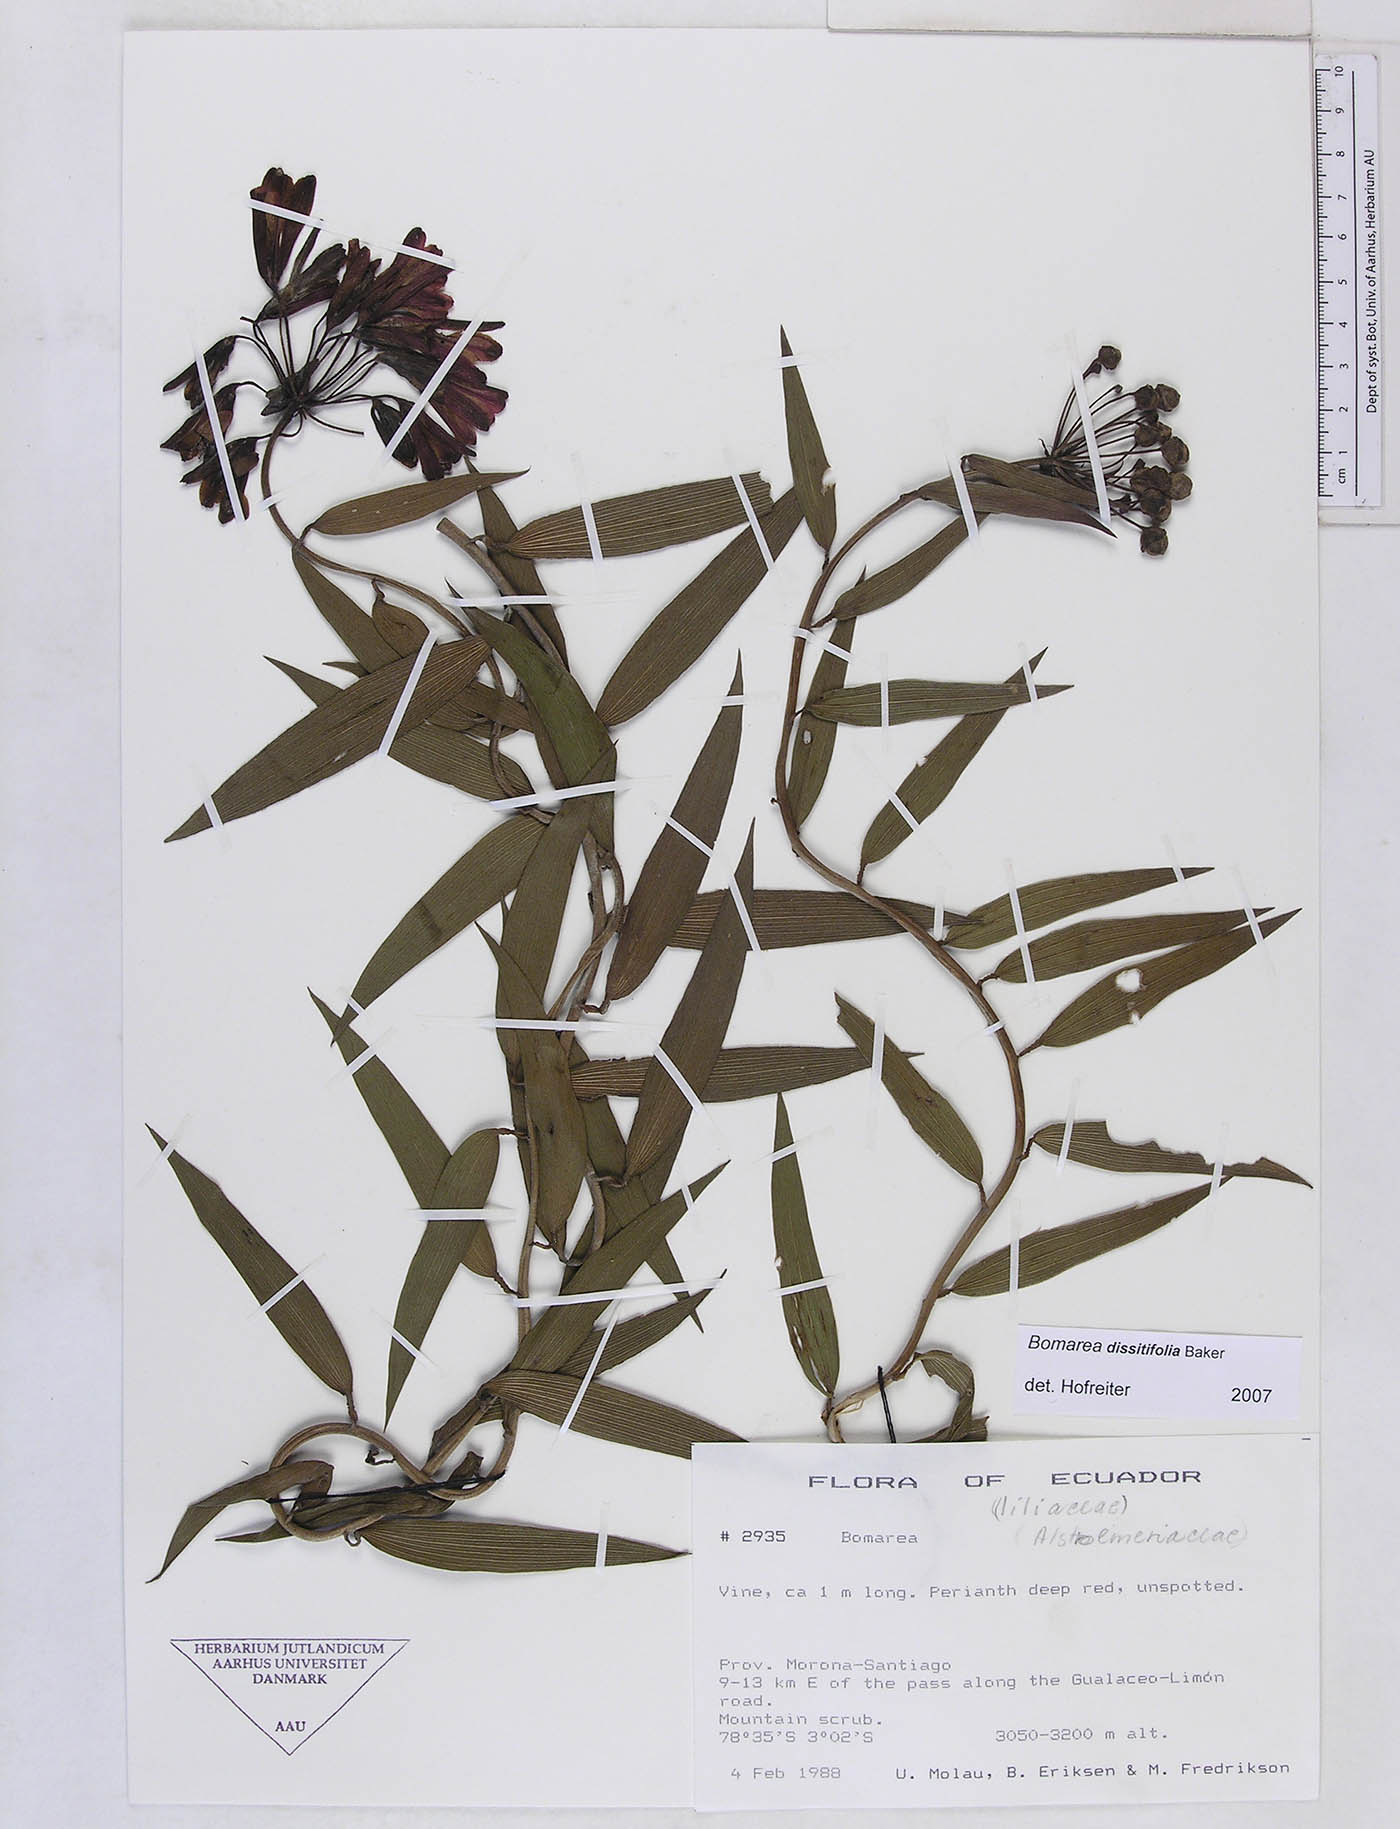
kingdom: Plantae
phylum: Tracheophyta
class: Liliopsida
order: Liliales
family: Alstroemeriaceae
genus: Bomarea
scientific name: Bomarea dissitifolia
